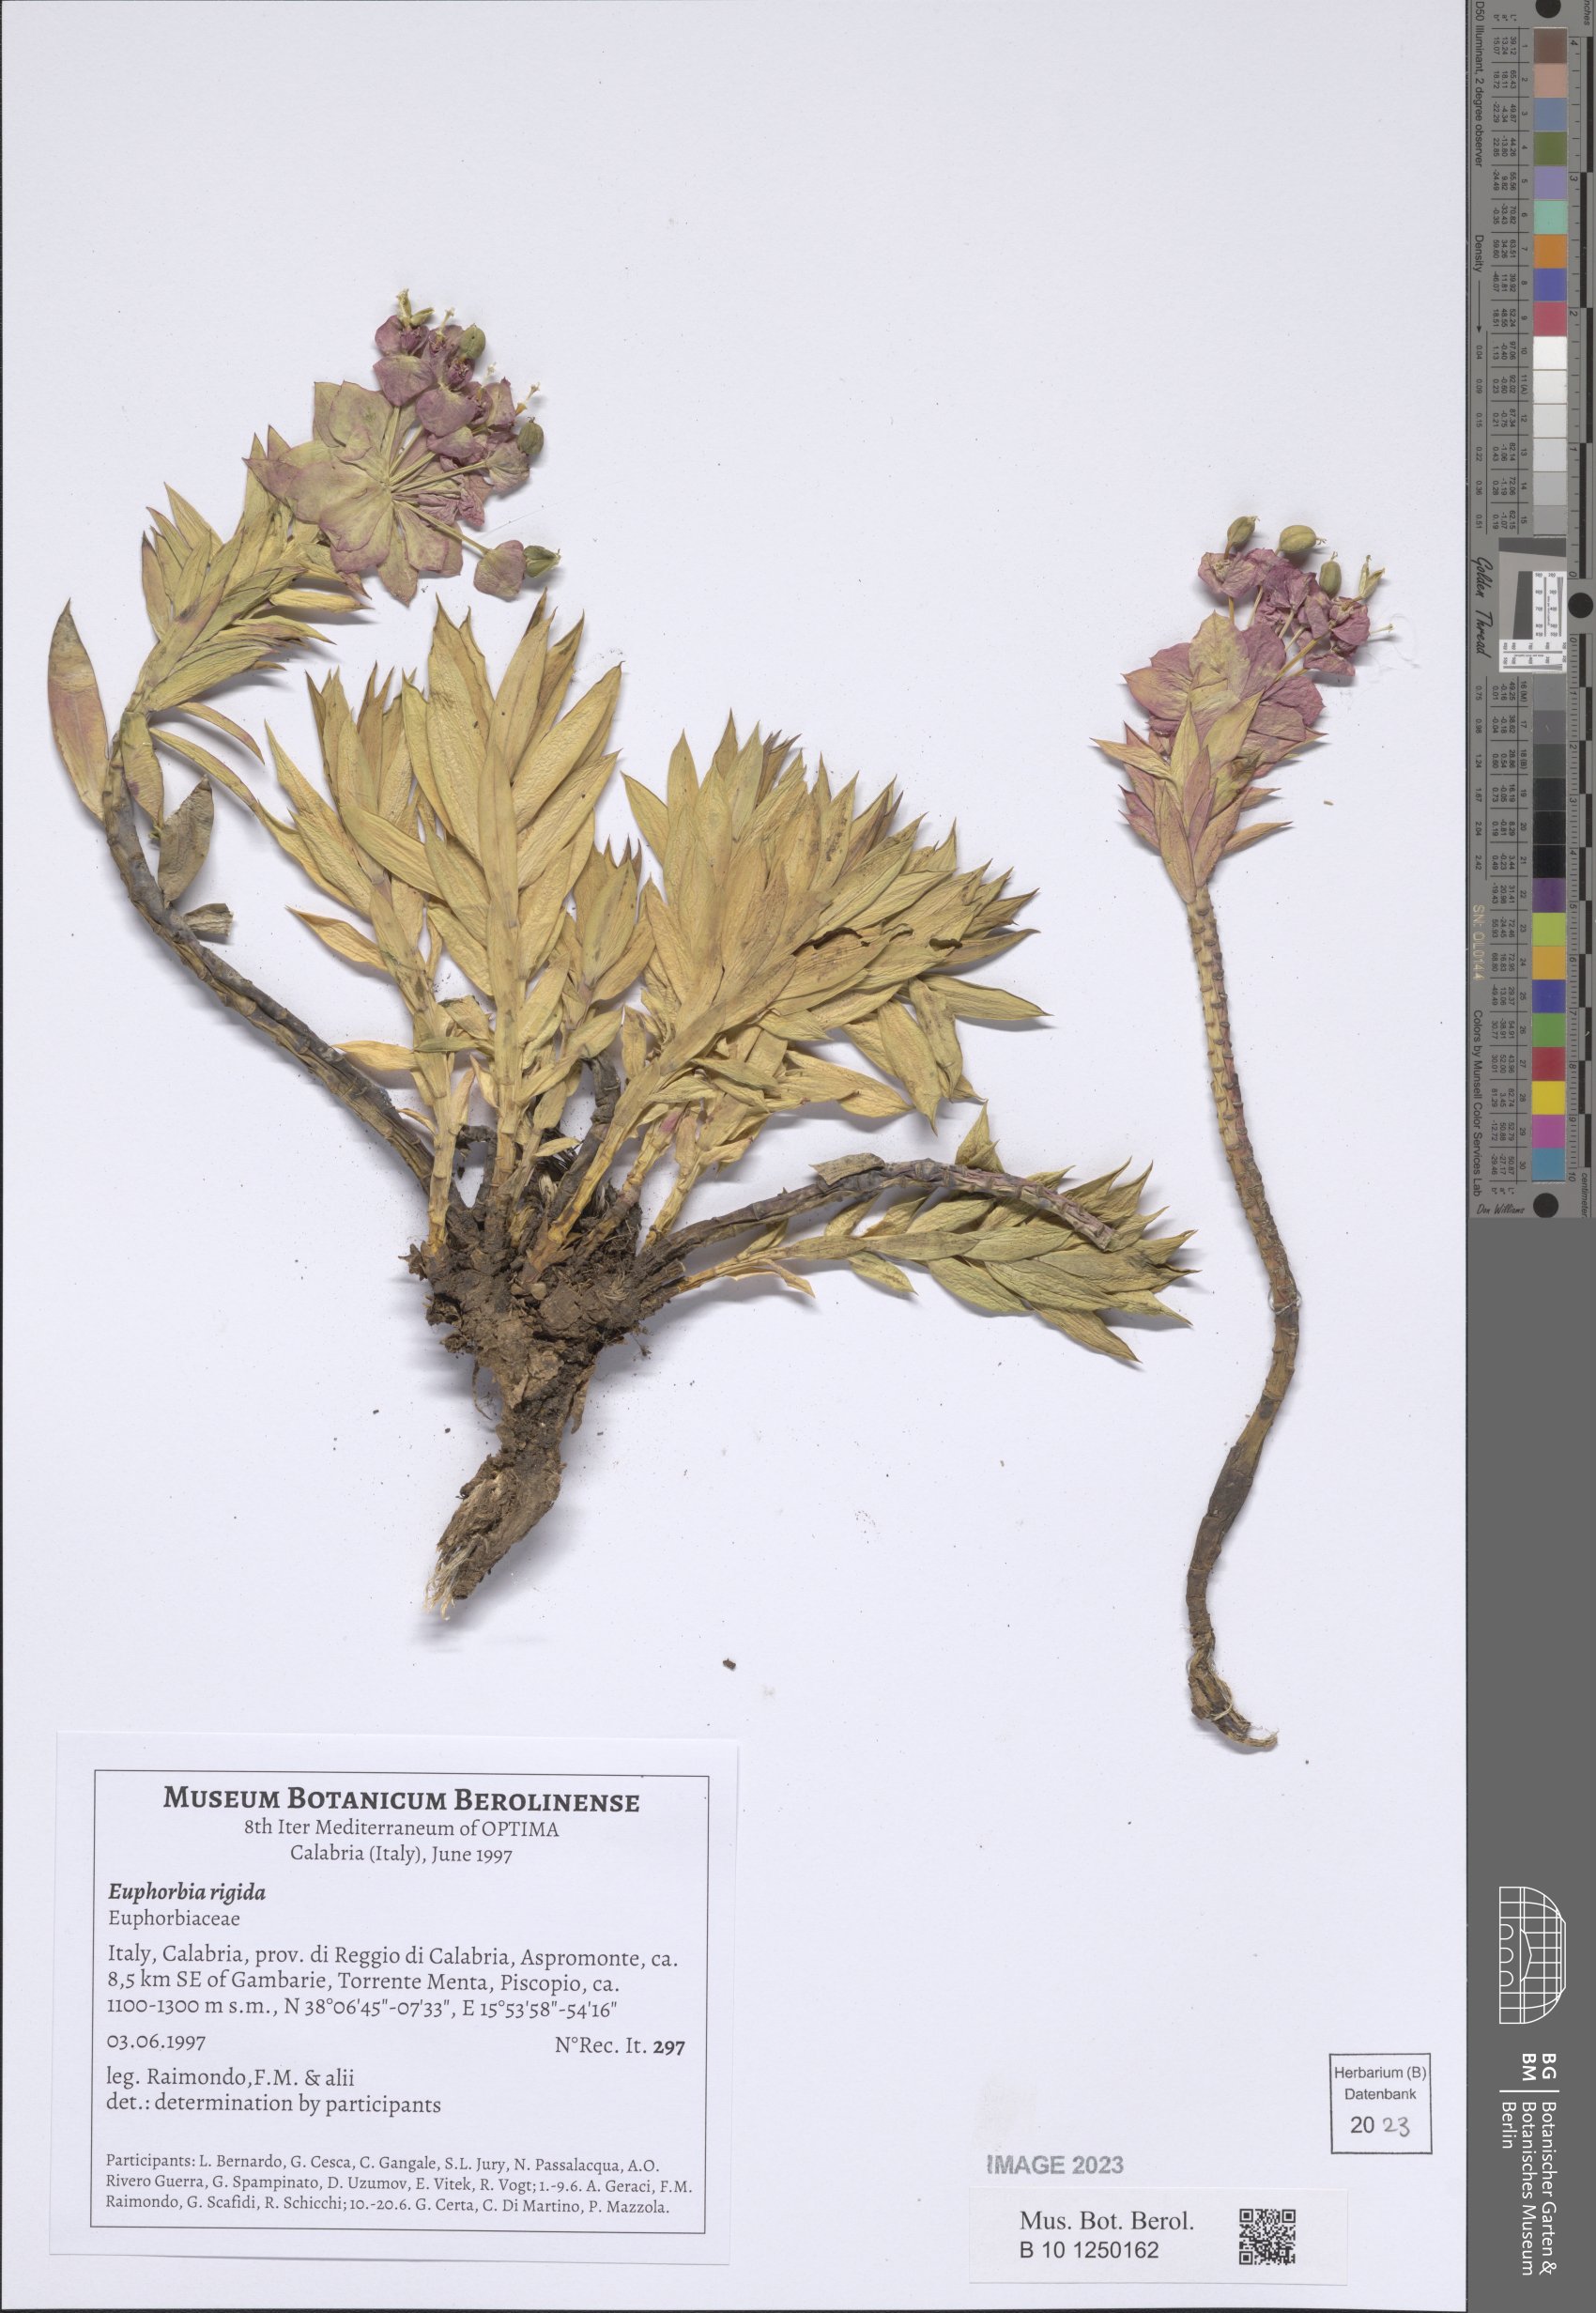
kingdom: Plantae
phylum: Tracheophyta
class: Magnoliopsida
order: Malpighiales
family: Euphorbiaceae
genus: Euphorbia
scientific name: Euphorbia rigida
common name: Upright myrtle spurge
